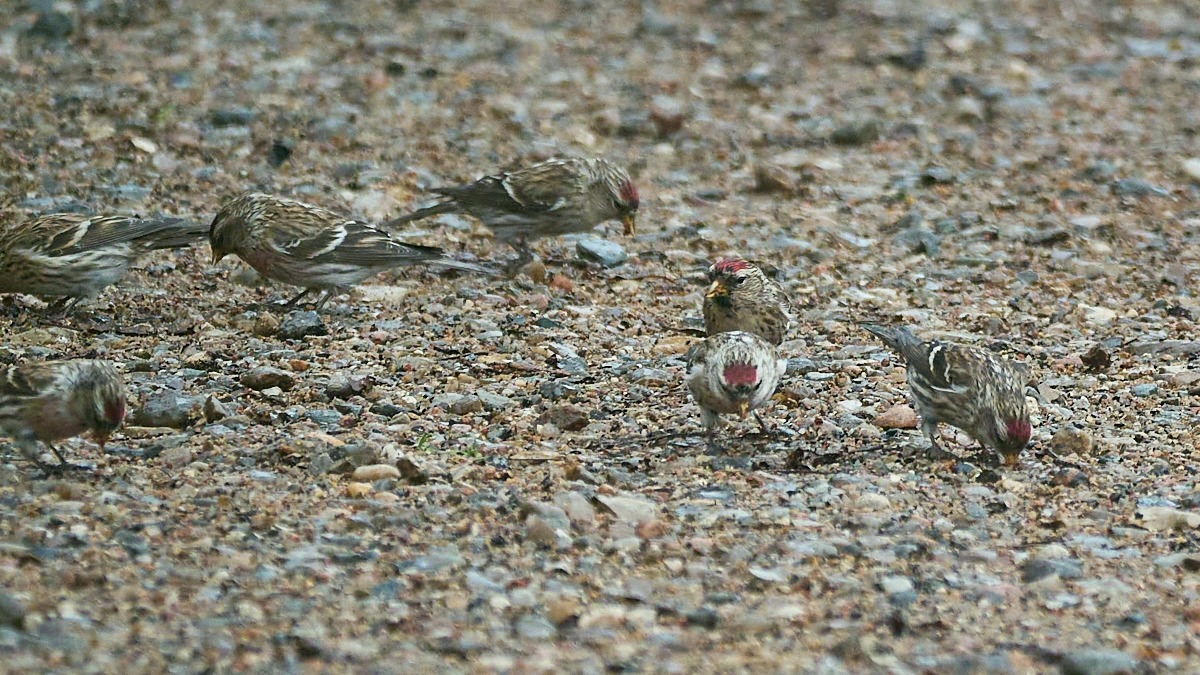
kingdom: Animalia
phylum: Chordata
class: Aves
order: Passeriformes
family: Fringillidae
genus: Acanthis
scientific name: Acanthis flammea
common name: Nordlig gråsisken
